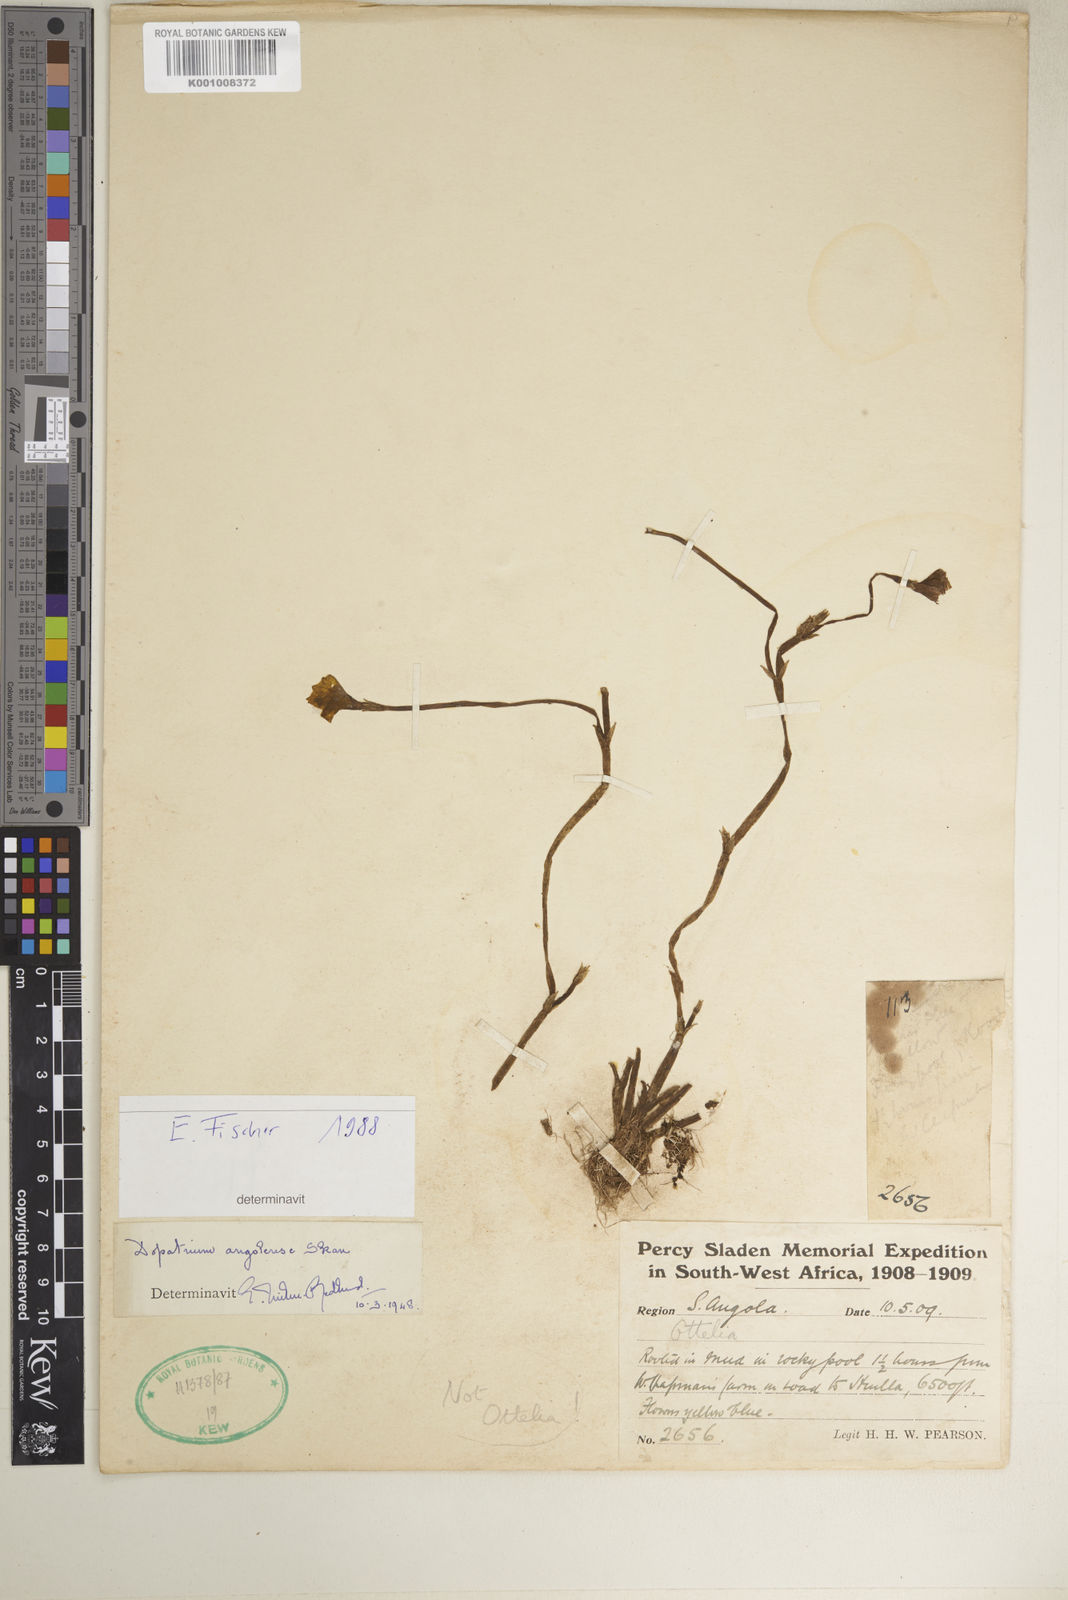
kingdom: Plantae
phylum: Tracheophyta
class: Magnoliopsida
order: Lamiales
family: Plantaginaceae
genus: Dopatrium
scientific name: Dopatrium angolense
